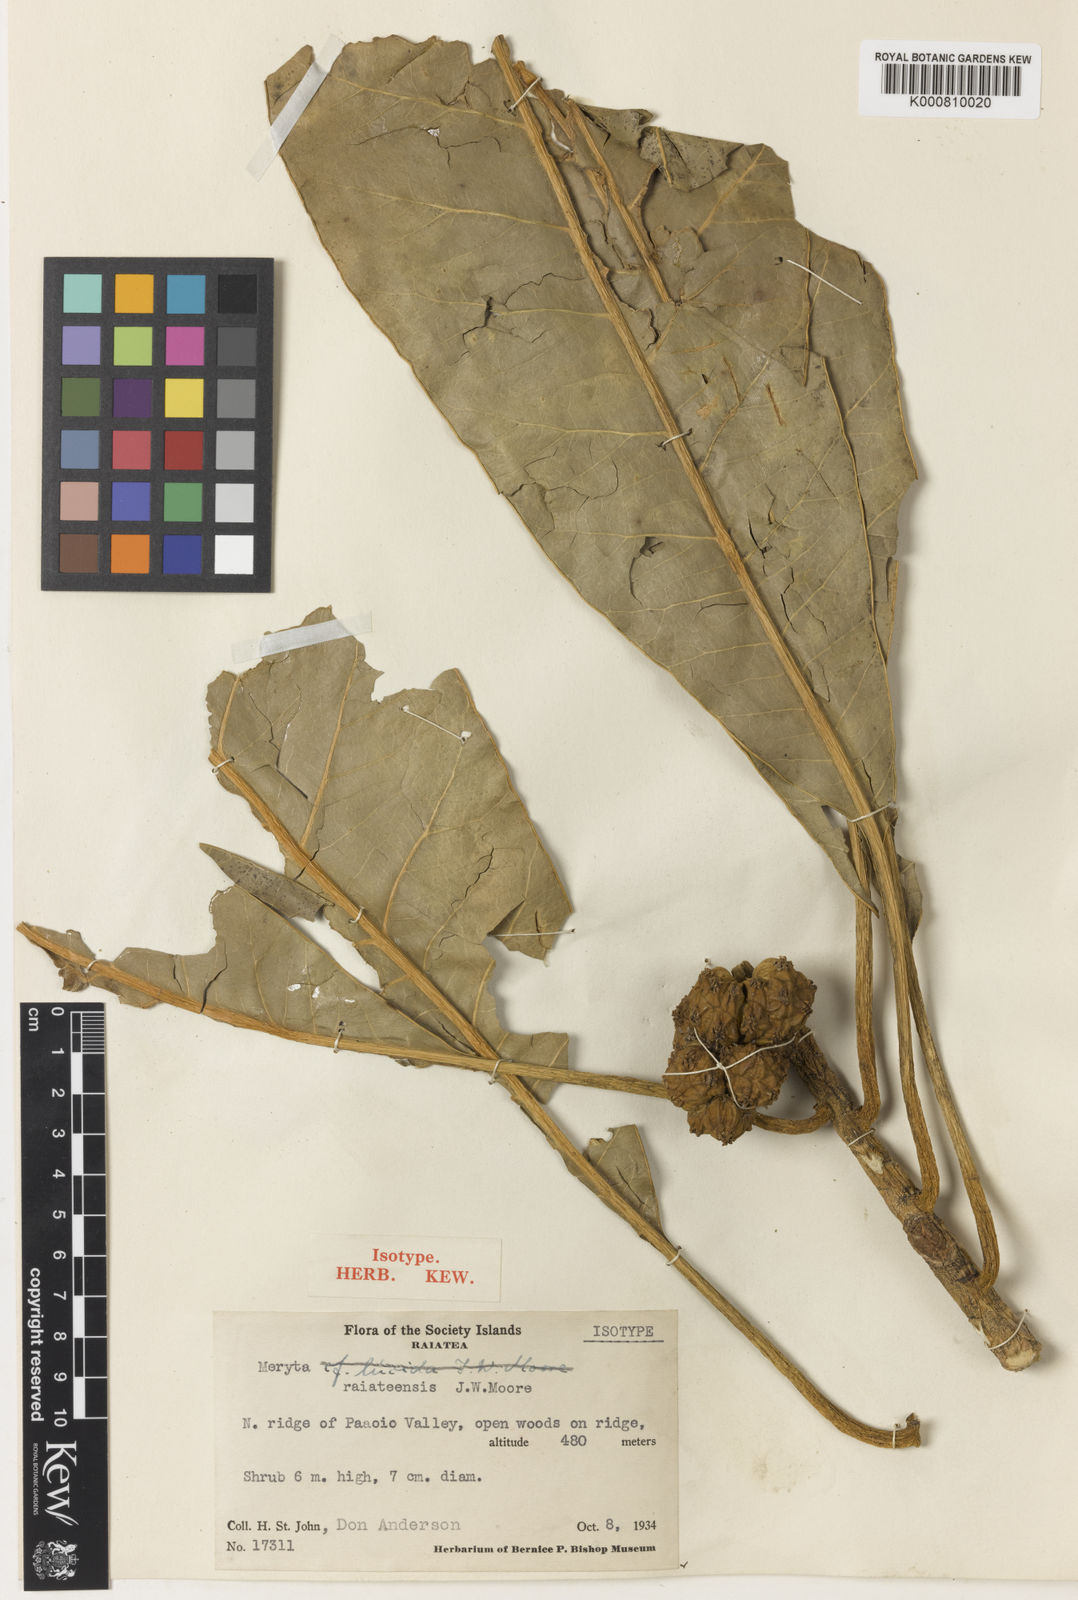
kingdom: Plantae
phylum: Tracheophyta
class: Magnoliopsida
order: Apiales
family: Araliaceae
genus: Meryta
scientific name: Meryta raiateensis
